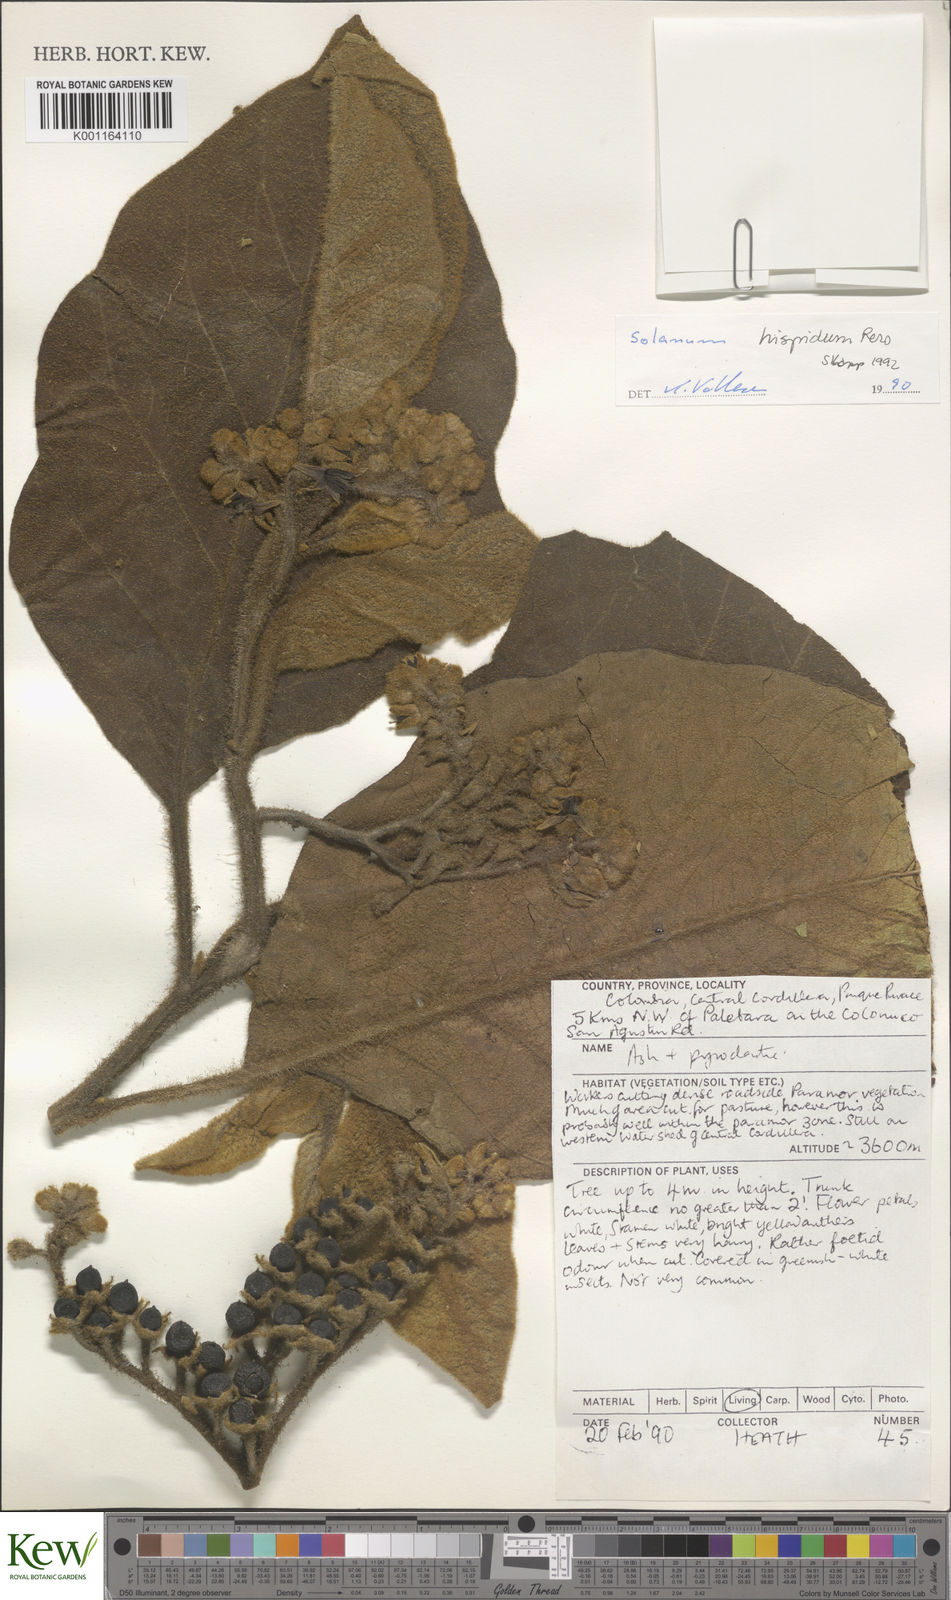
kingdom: Plantae
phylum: Tracheophyta
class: Magnoliopsida
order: Solanales
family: Solanaceae
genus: Solanum
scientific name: Solanum asperolanatum
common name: Devil's-fig
